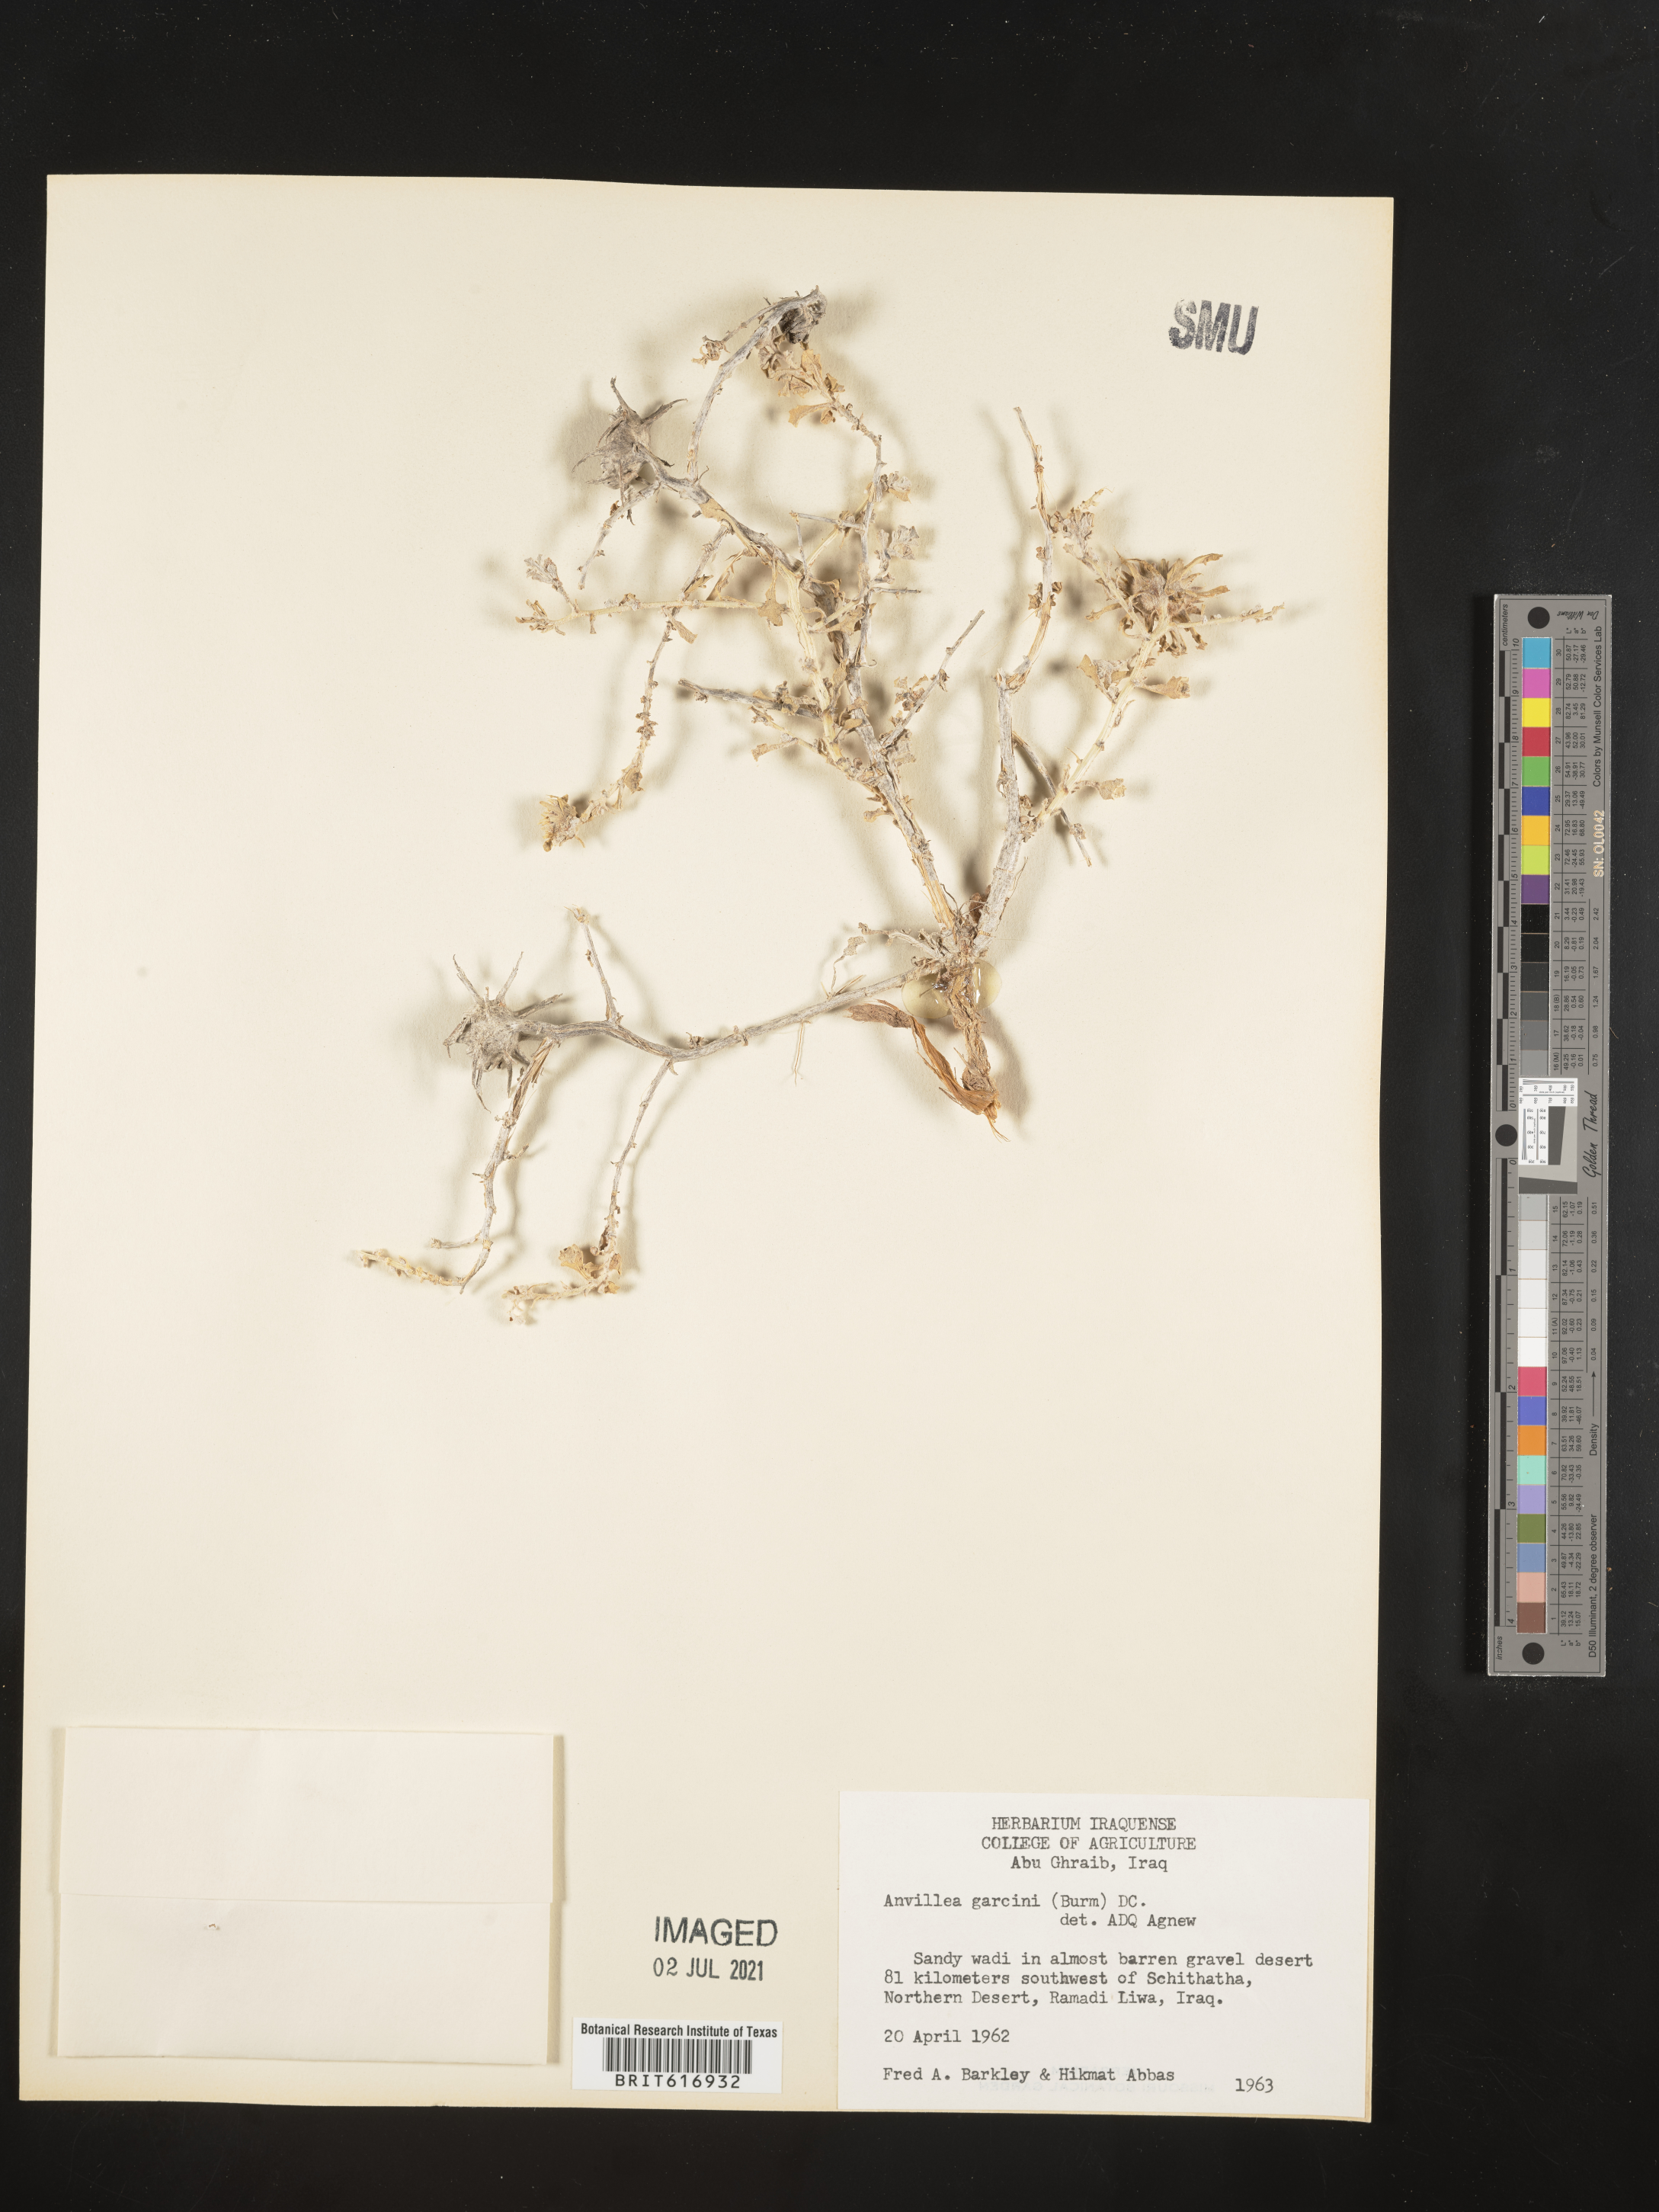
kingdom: Plantae
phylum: Tracheophyta
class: Magnoliopsida
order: Asterales
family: Asteraceae
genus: Anvillea
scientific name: Anvillea garcinii
